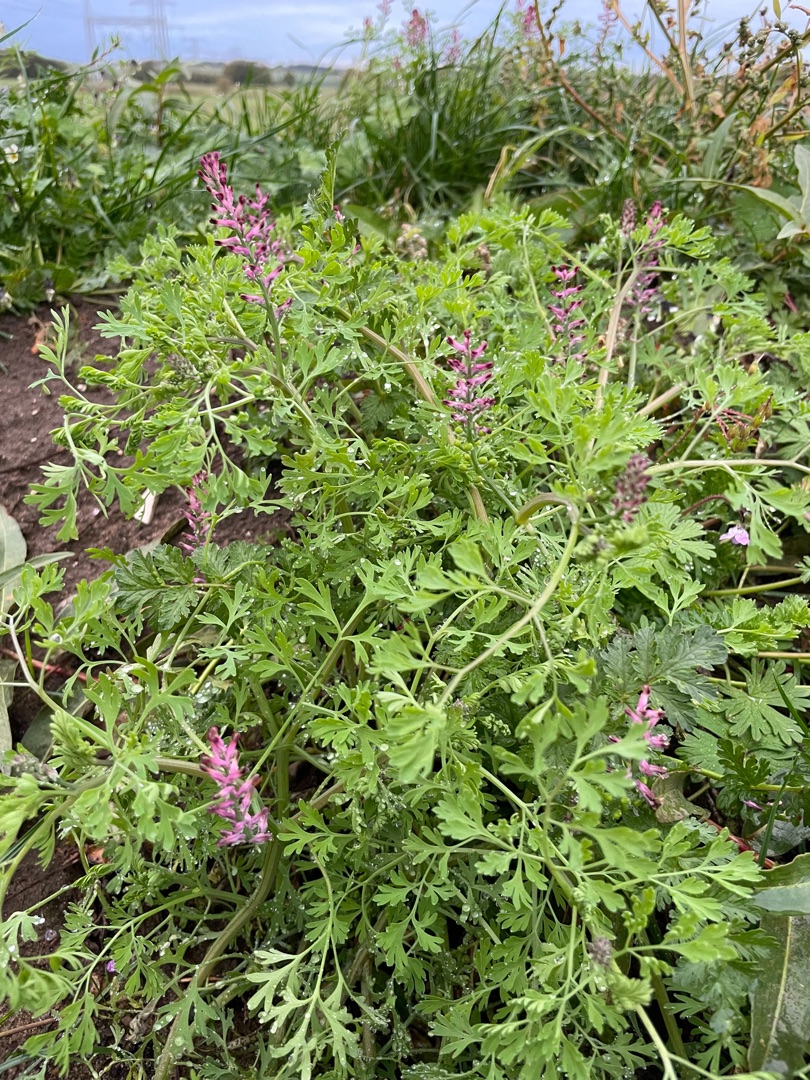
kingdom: Plantae
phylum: Tracheophyta
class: Magnoliopsida
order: Ranunculales
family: Papaveraceae
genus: Fumaria
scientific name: Fumaria officinalis
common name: Læge-jordrøg
